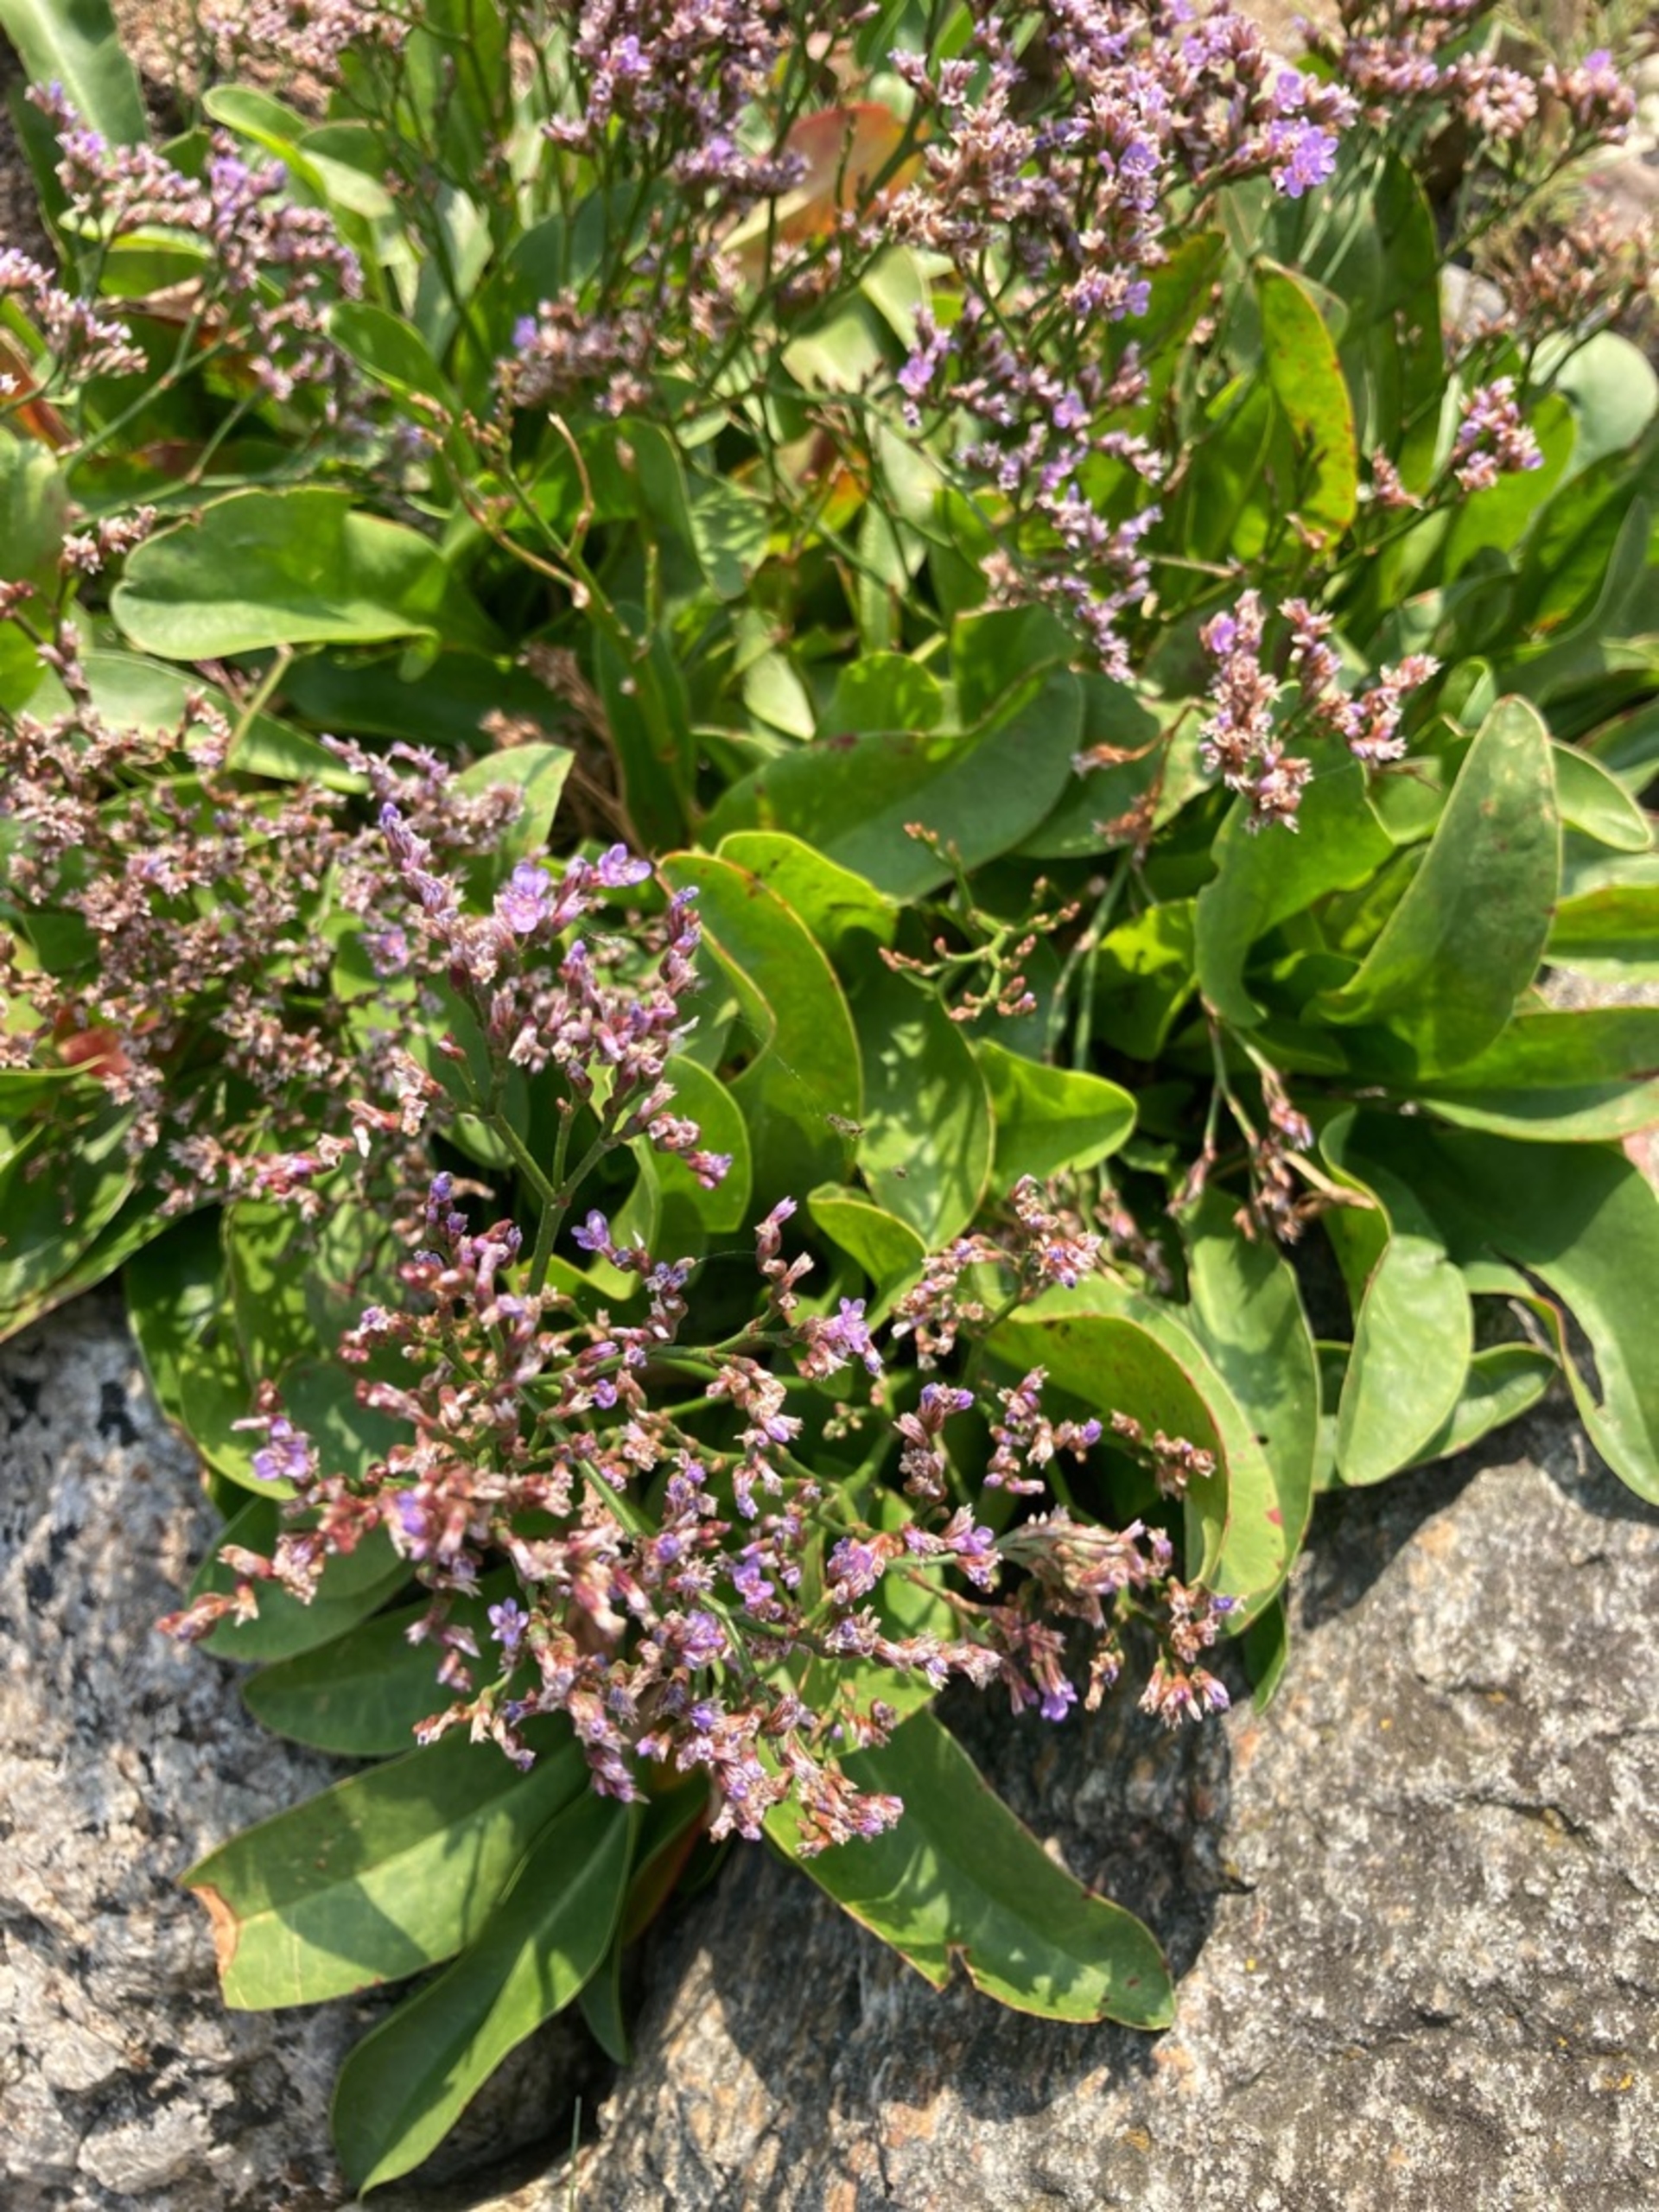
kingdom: Plantae
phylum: Tracheophyta
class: Magnoliopsida
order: Caryophyllales
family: Plumbaginaceae
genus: Limonium
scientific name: Limonium vulgare
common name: Tætblomstret hindebæger
